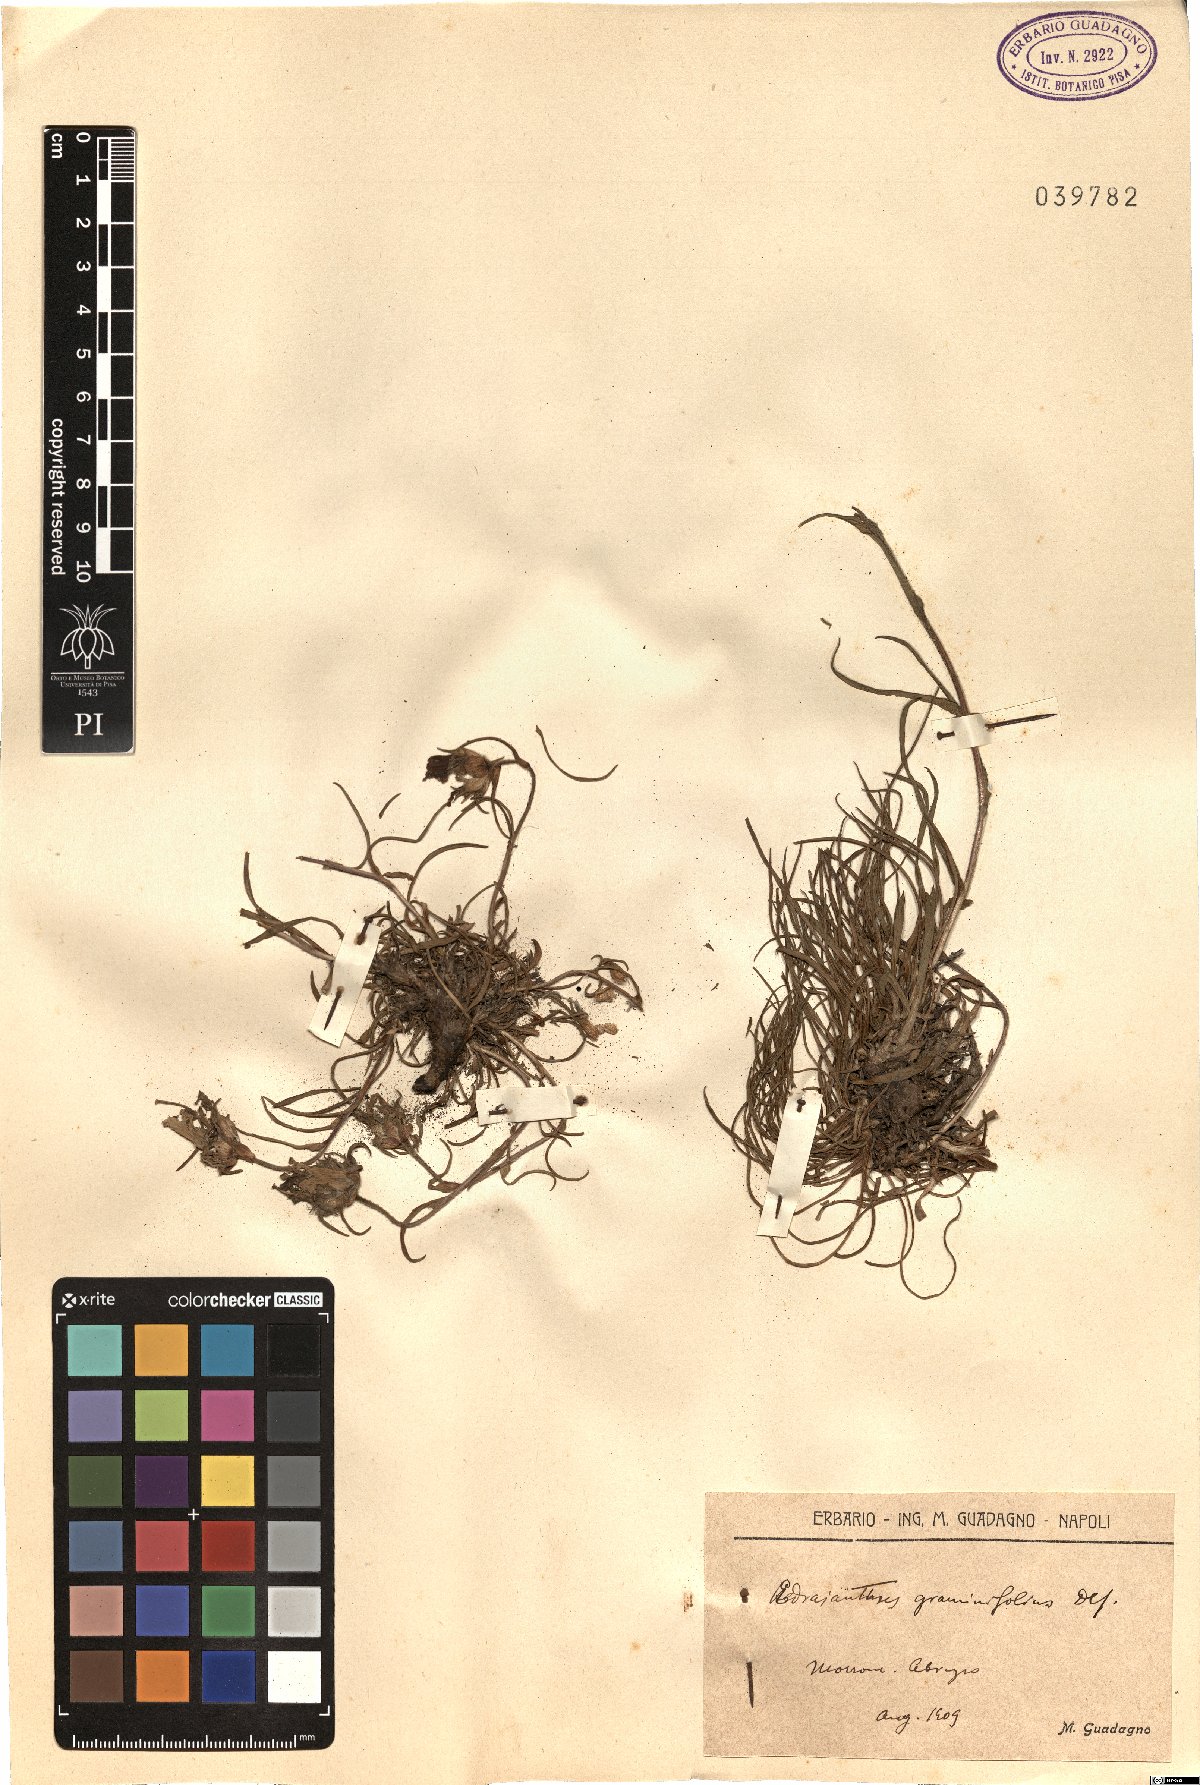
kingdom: Plantae
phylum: Tracheophyta
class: Magnoliopsida
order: Asterales
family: Campanulaceae
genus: Edraianthus
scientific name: Edraianthus graminifolius
